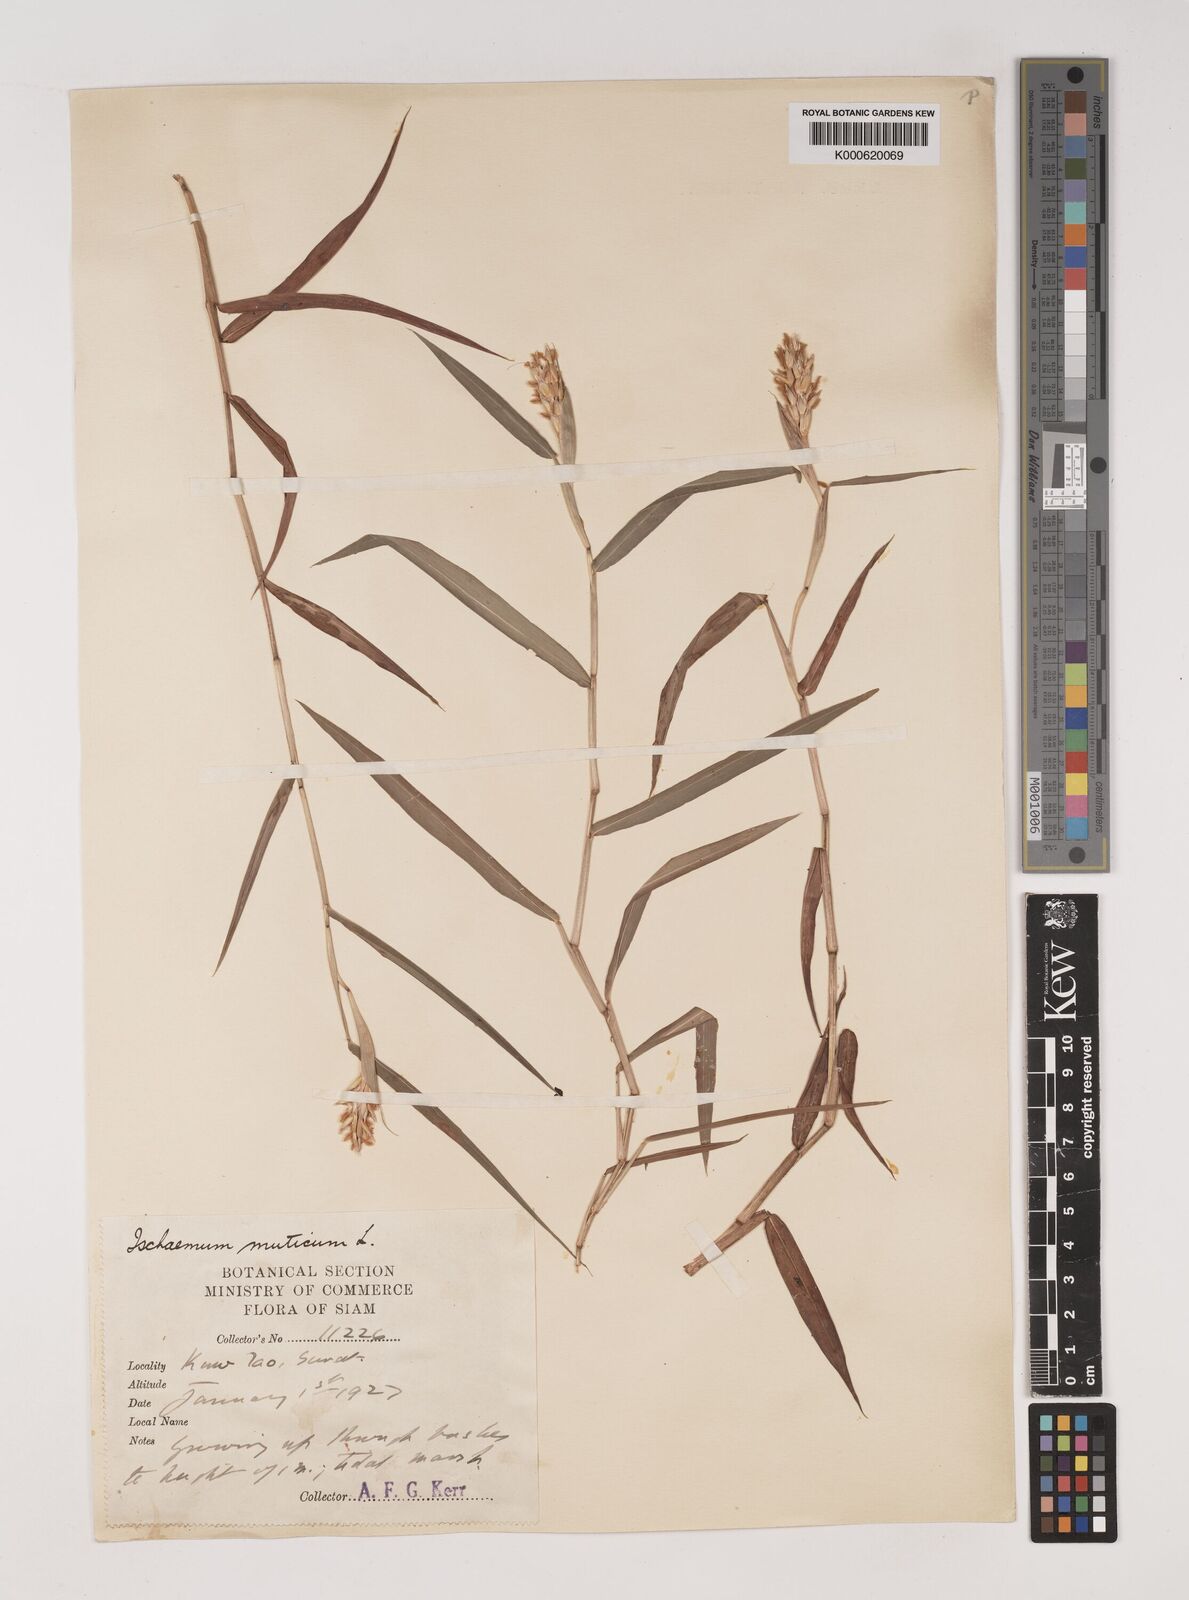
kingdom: Plantae
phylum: Tracheophyta
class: Liliopsida
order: Poales
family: Poaceae
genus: Ischaemum
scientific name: Ischaemum muticum
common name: Drought grass
